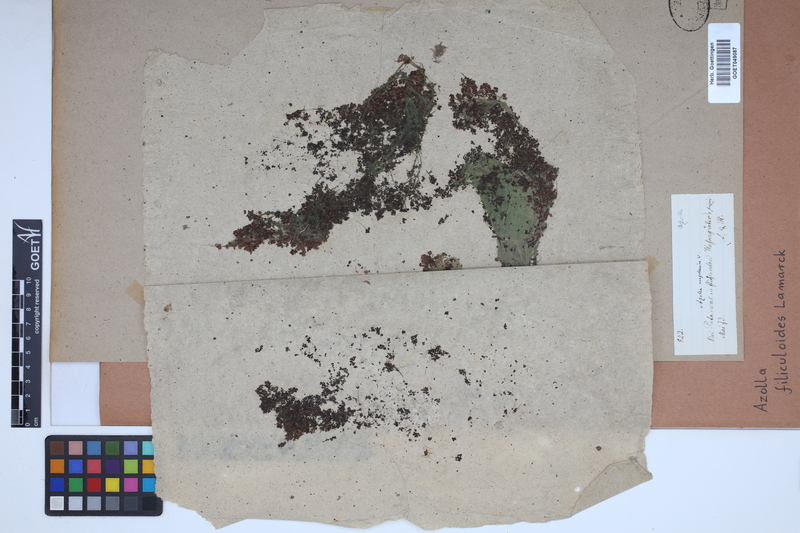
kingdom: Plantae
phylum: Tracheophyta
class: Polypodiopsida
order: Salviniales
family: Salviniaceae
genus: Azolla
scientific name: Azolla filiculoides
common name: Water fern
